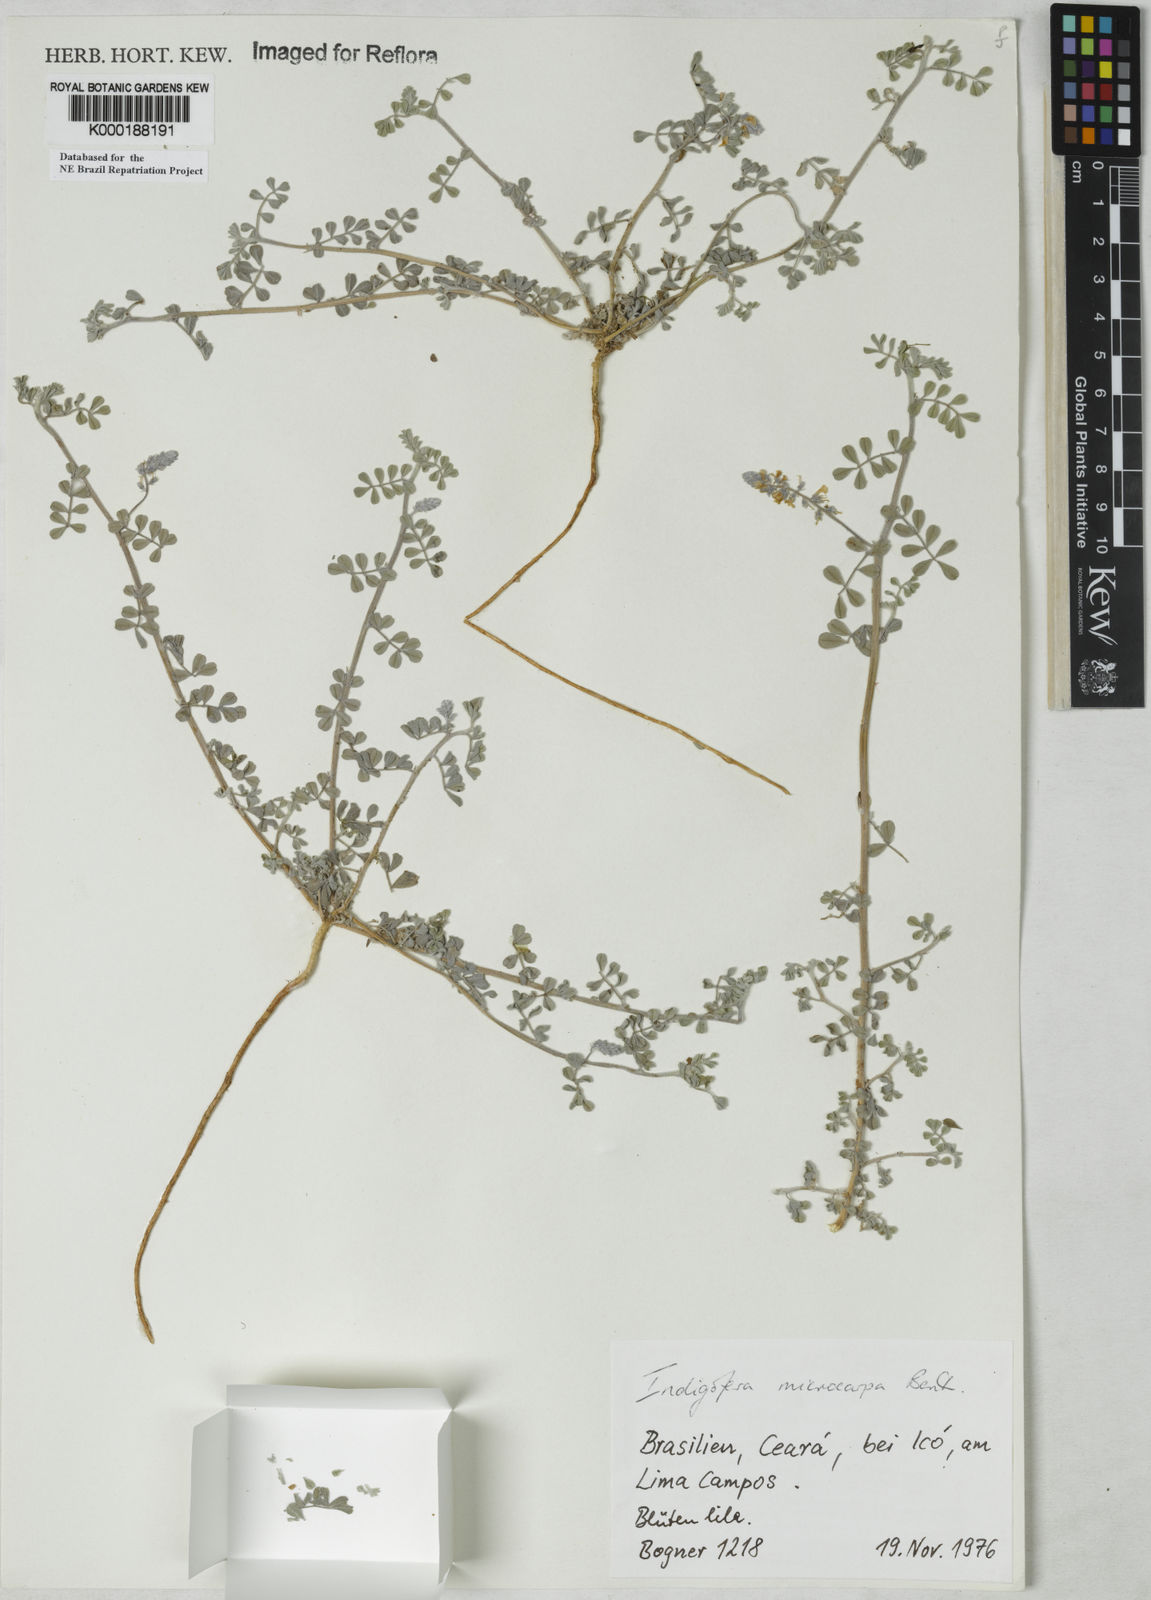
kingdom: Plantae
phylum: Tracheophyta
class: Magnoliopsida
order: Fabales
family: Fabaceae
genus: Indigofera
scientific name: Indigofera microcarpa
